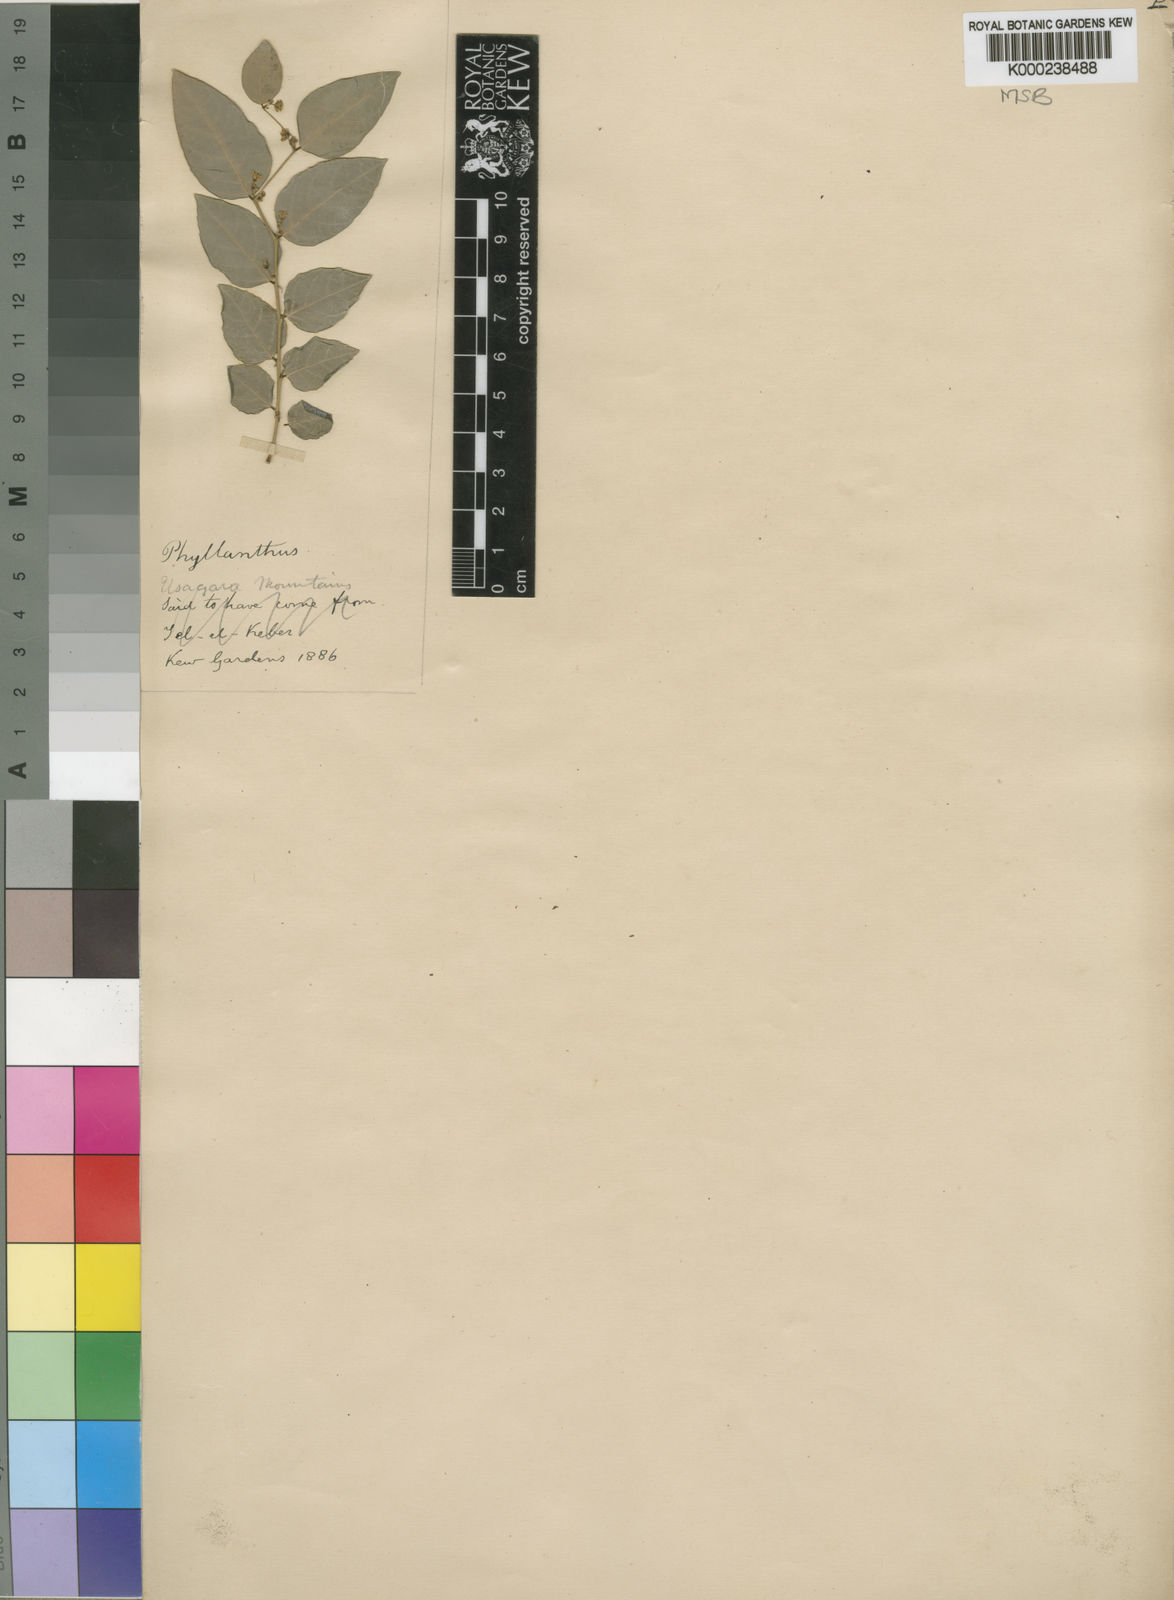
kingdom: Plantae
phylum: Tracheophyta
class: Magnoliopsida
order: Malpighiales
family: Phyllanthaceae
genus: Phyllanthus
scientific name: Phyllanthus mittenianus
